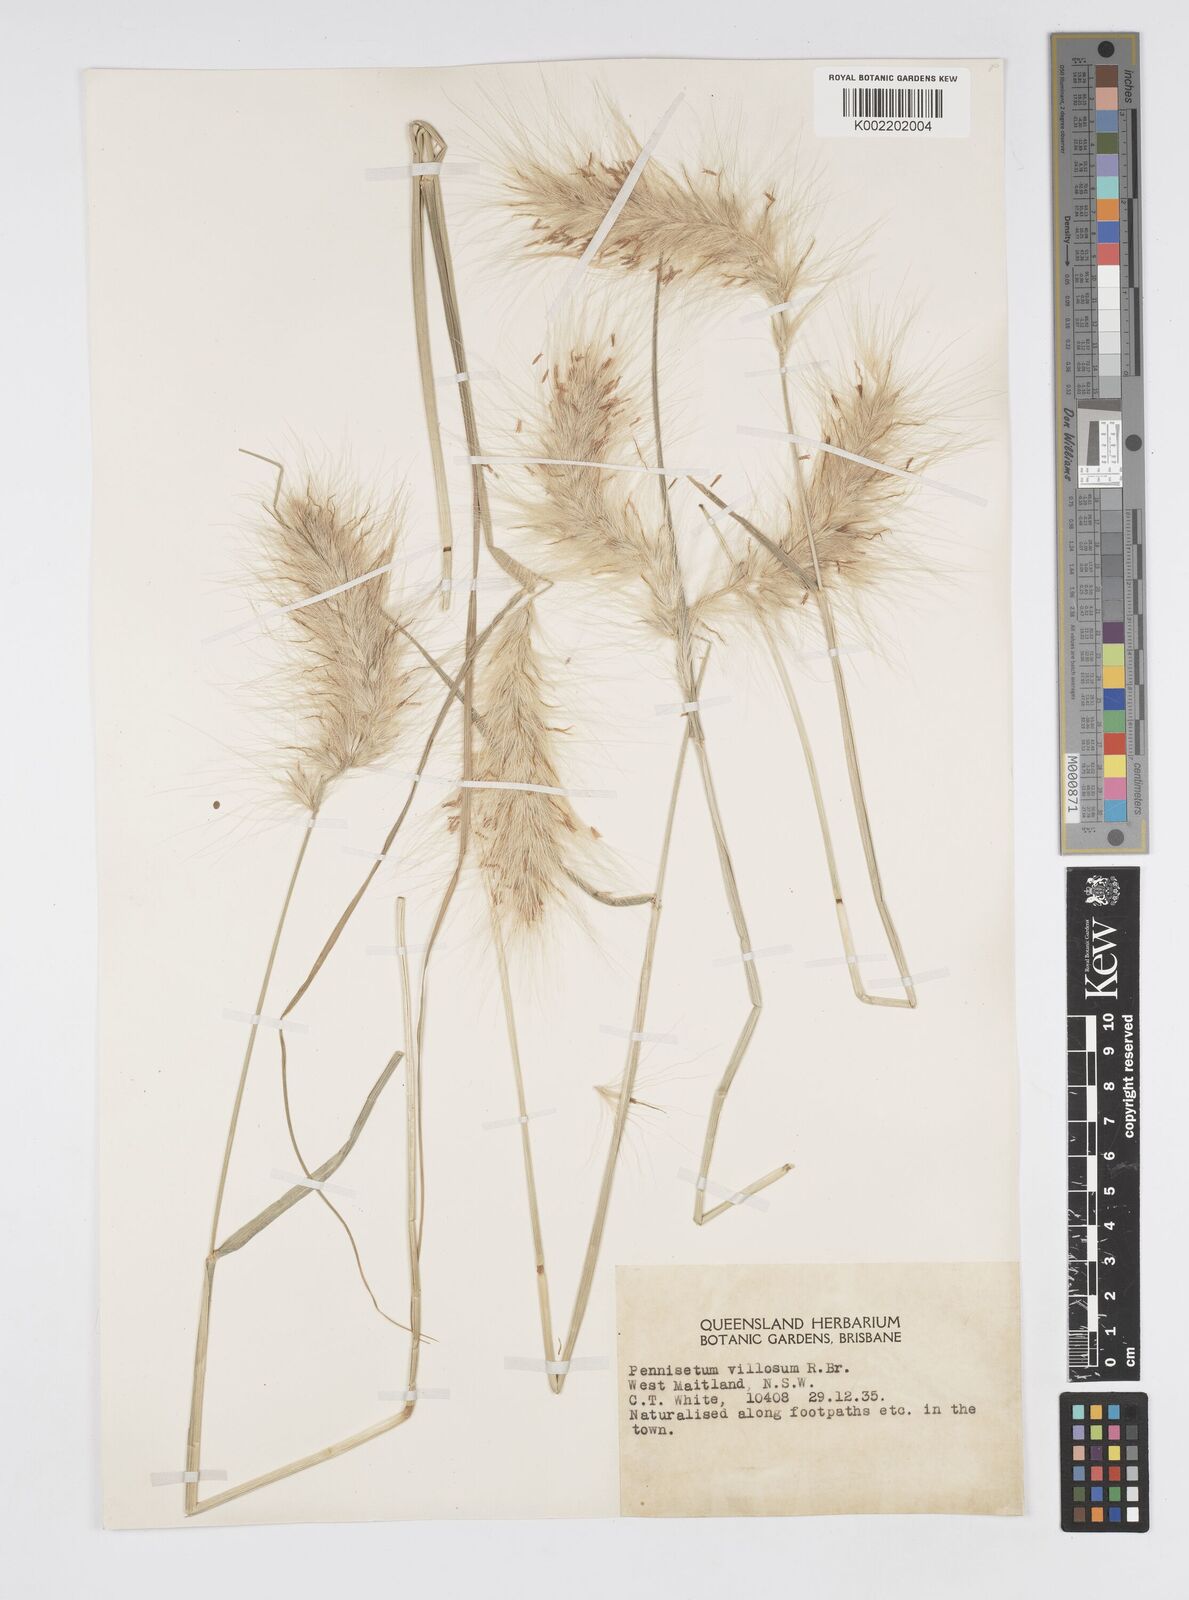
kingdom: Plantae
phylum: Tracheophyta
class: Liliopsida
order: Poales
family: Poaceae
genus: Cenchrus
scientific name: Cenchrus longisetus
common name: Feathertop
